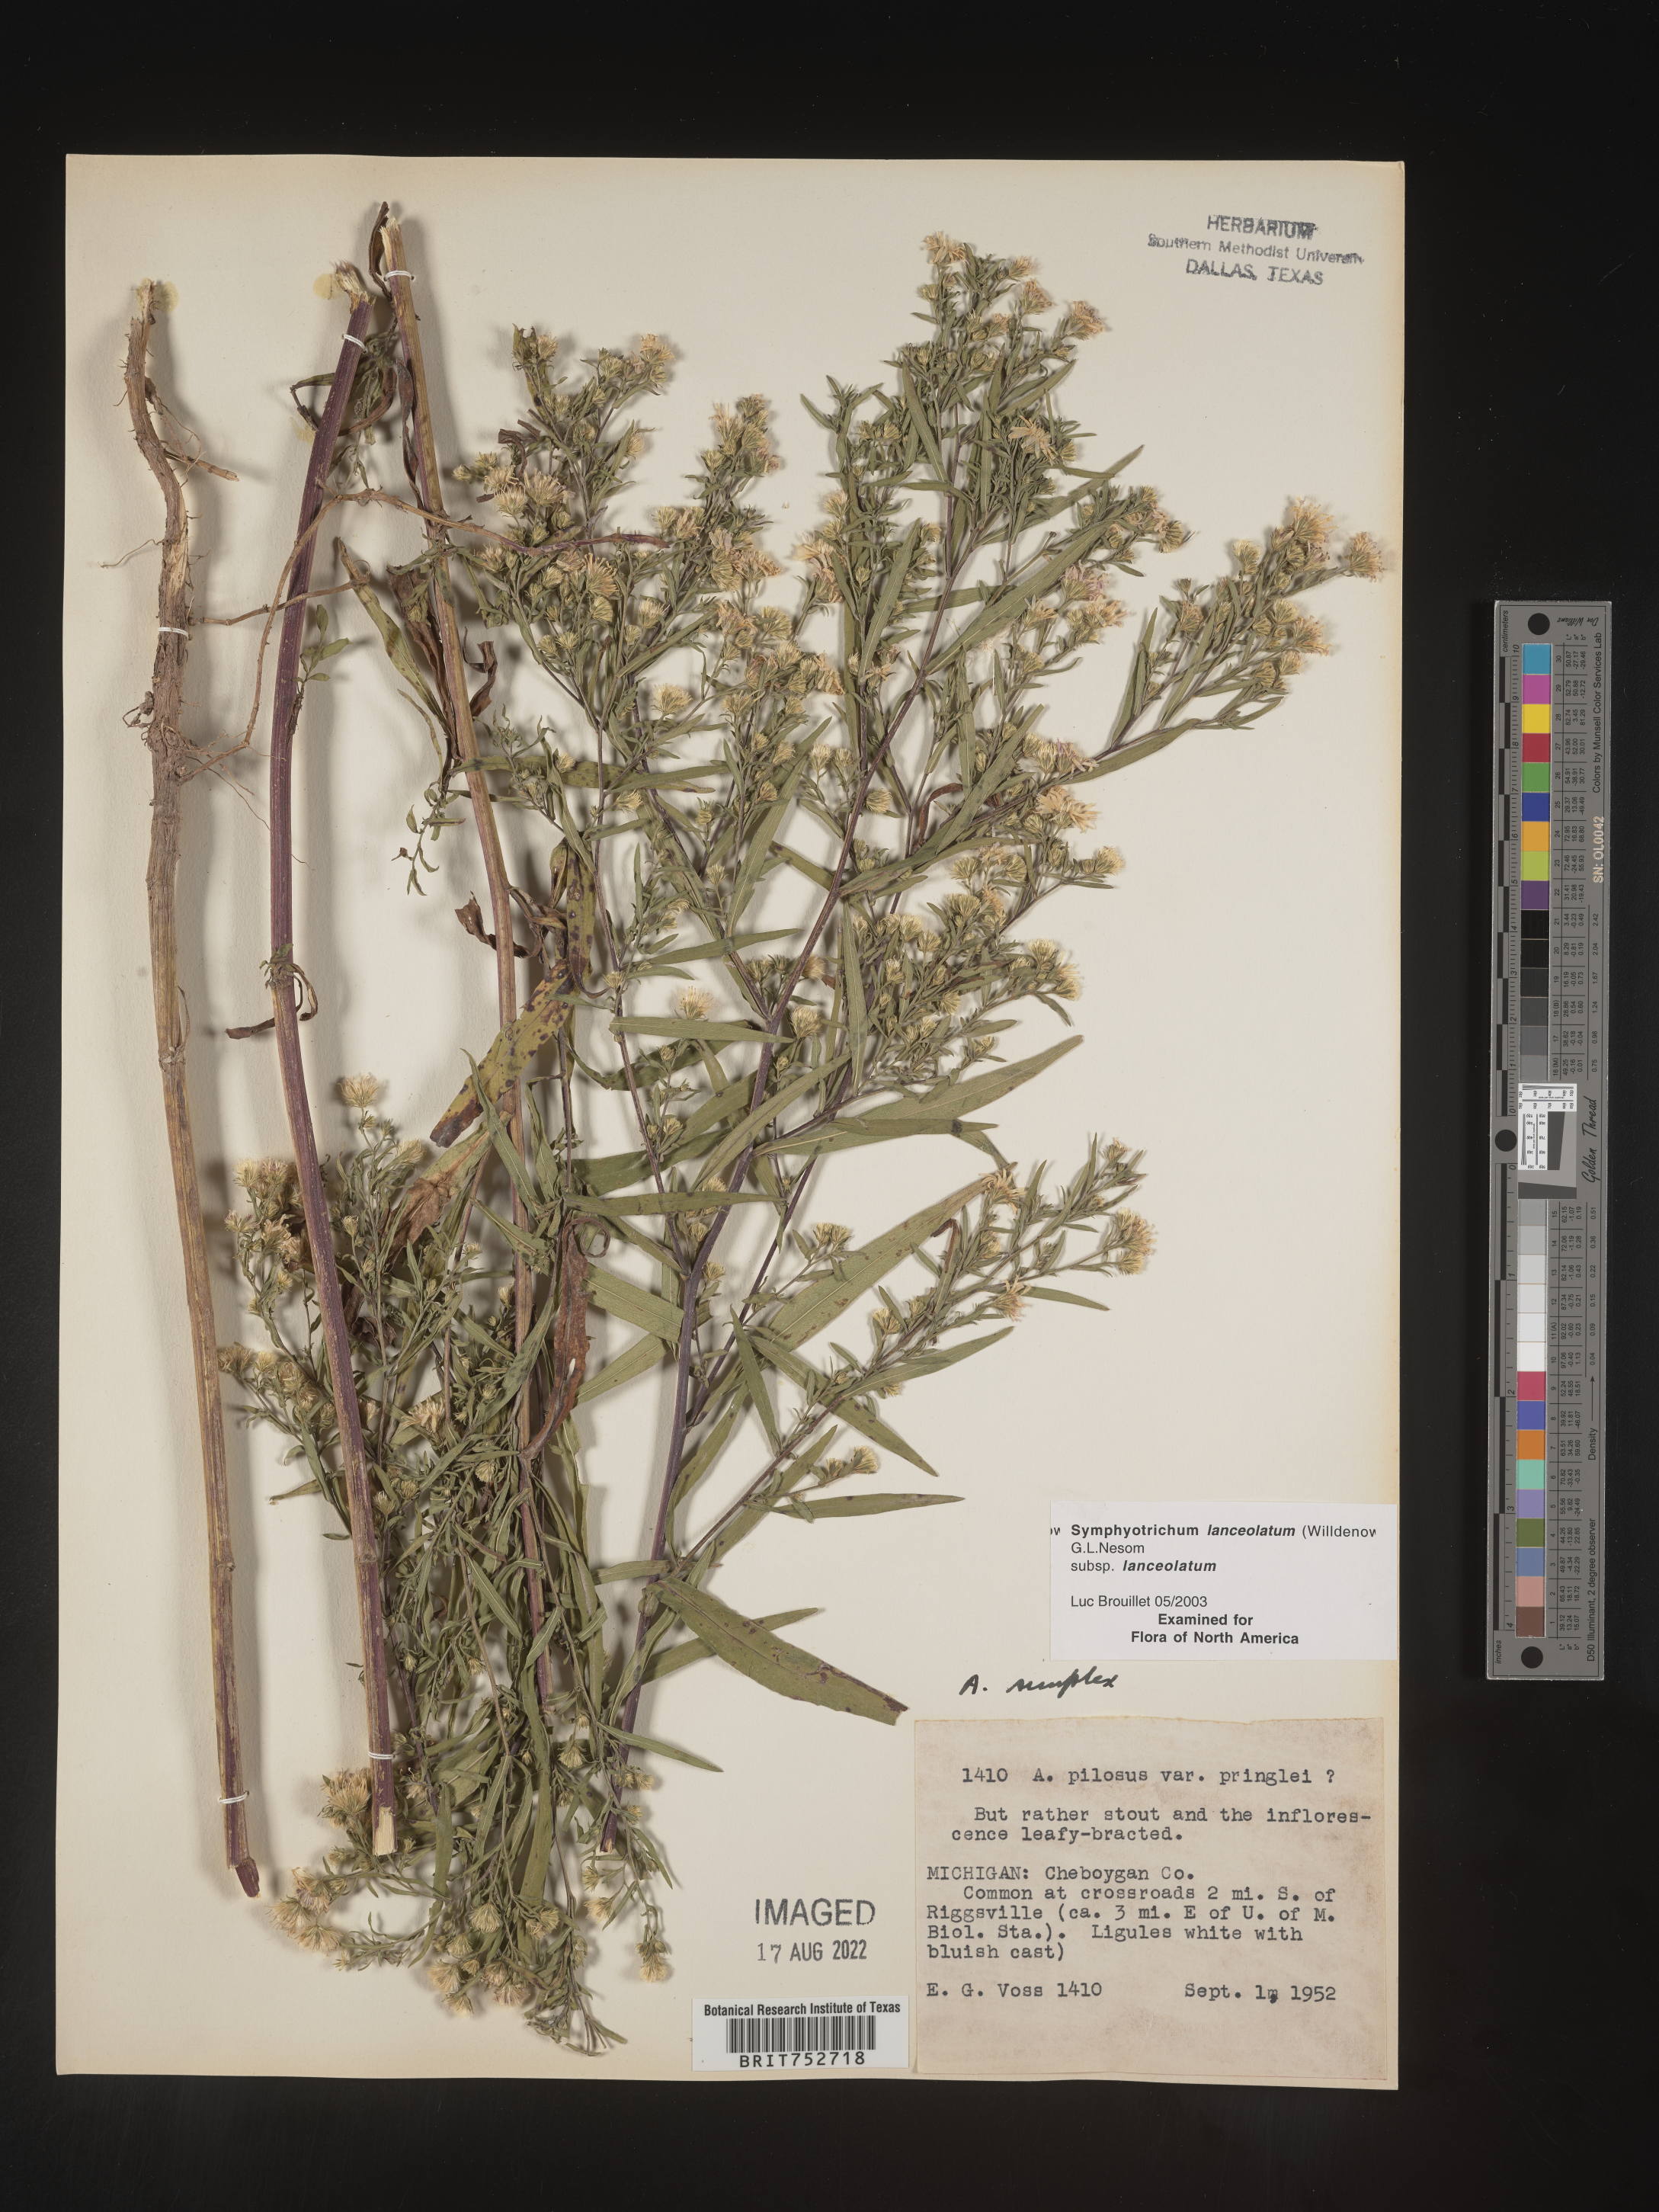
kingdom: Plantae
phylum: Tracheophyta
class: Magnoliopsida
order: Asterales
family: Asteraceae
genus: Symphyotrichum
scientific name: Symphyotrichum lanceolatum
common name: Panicled aster
